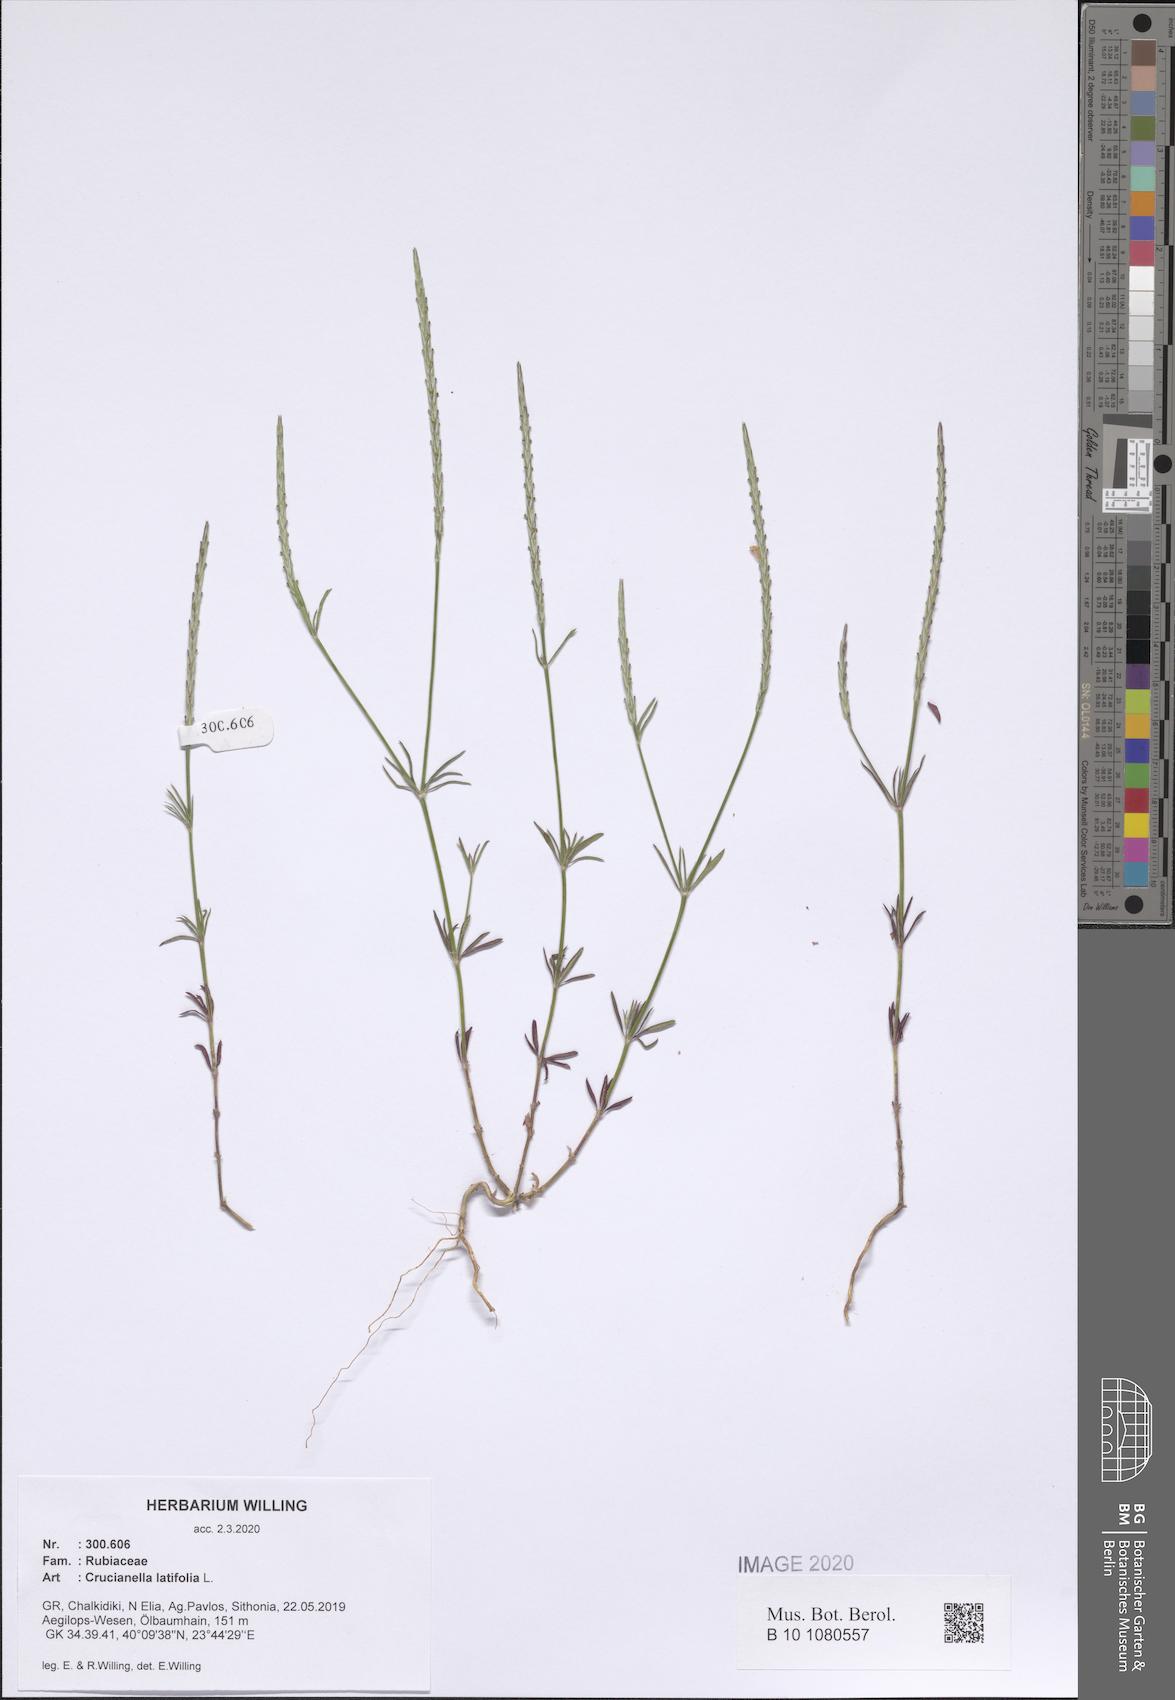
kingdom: Plantae
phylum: Tracheophyta
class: Magnoliopsida
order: Gentianales
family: Rubiaceae
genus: Crucianella
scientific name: Crucianella latifolia
